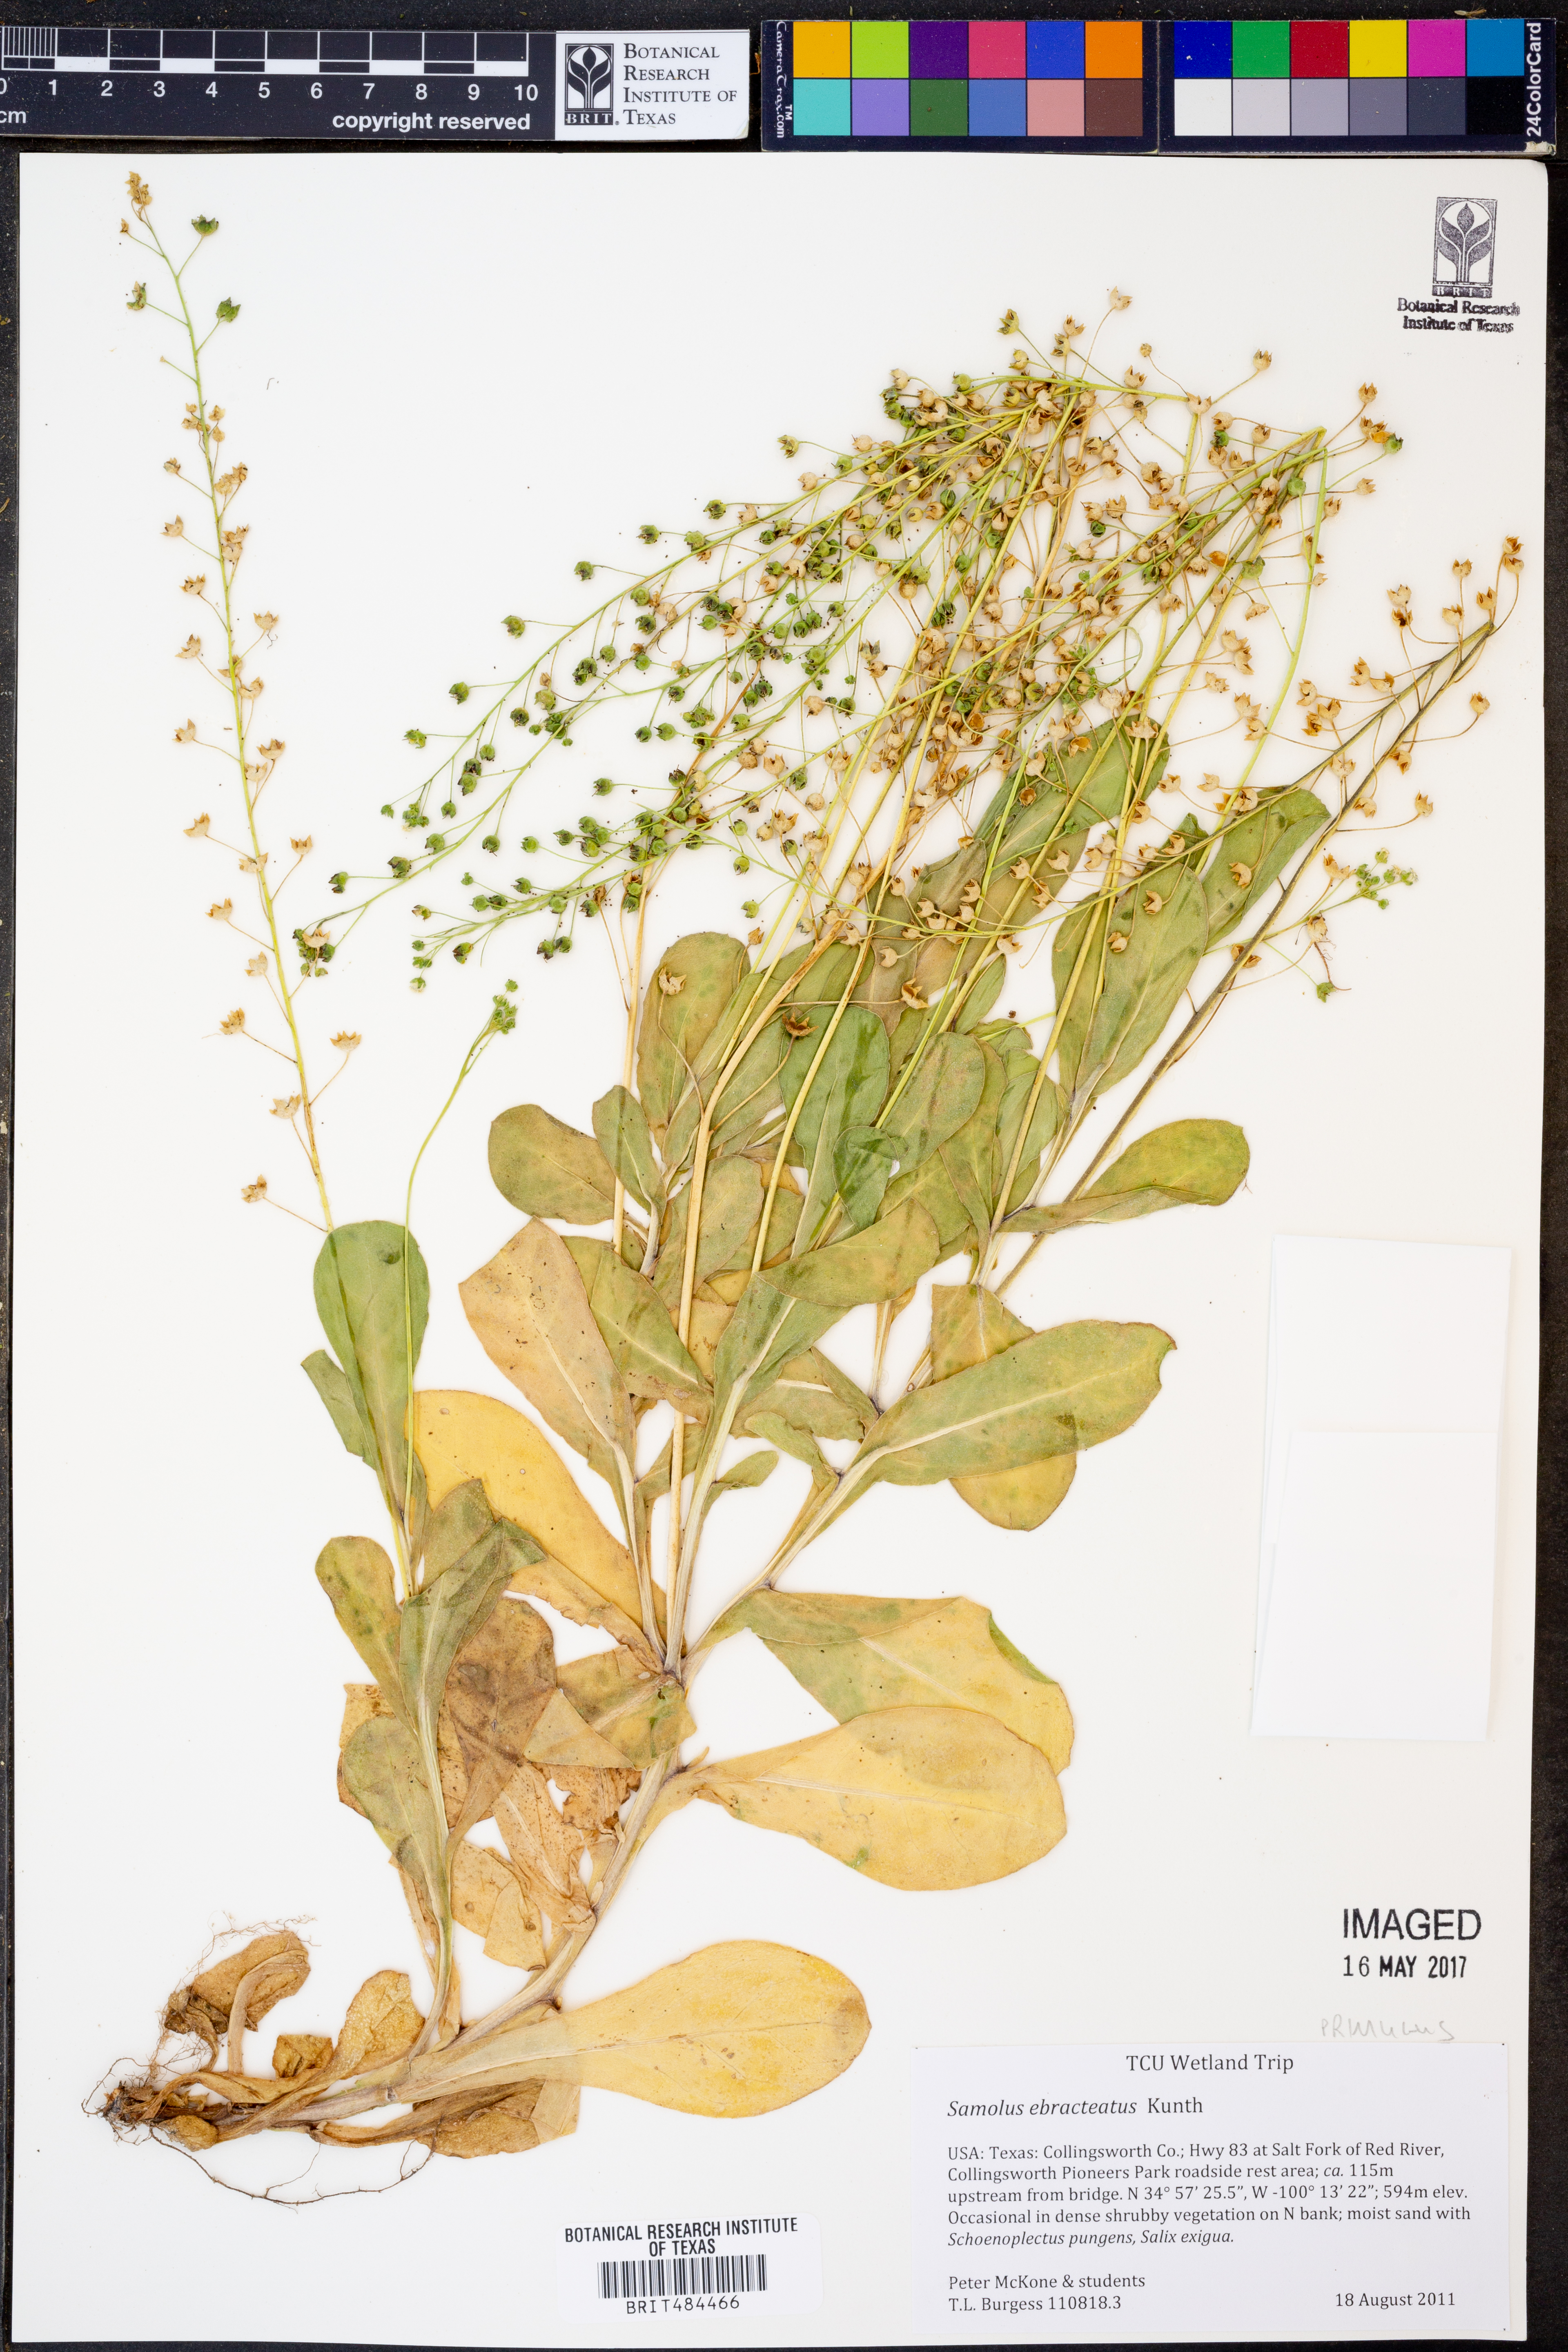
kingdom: Plantae
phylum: Tracheophyta
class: Magnoliopsida
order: Ericales
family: Primulaceae
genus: Samolus
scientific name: Samolus ebracteatus
